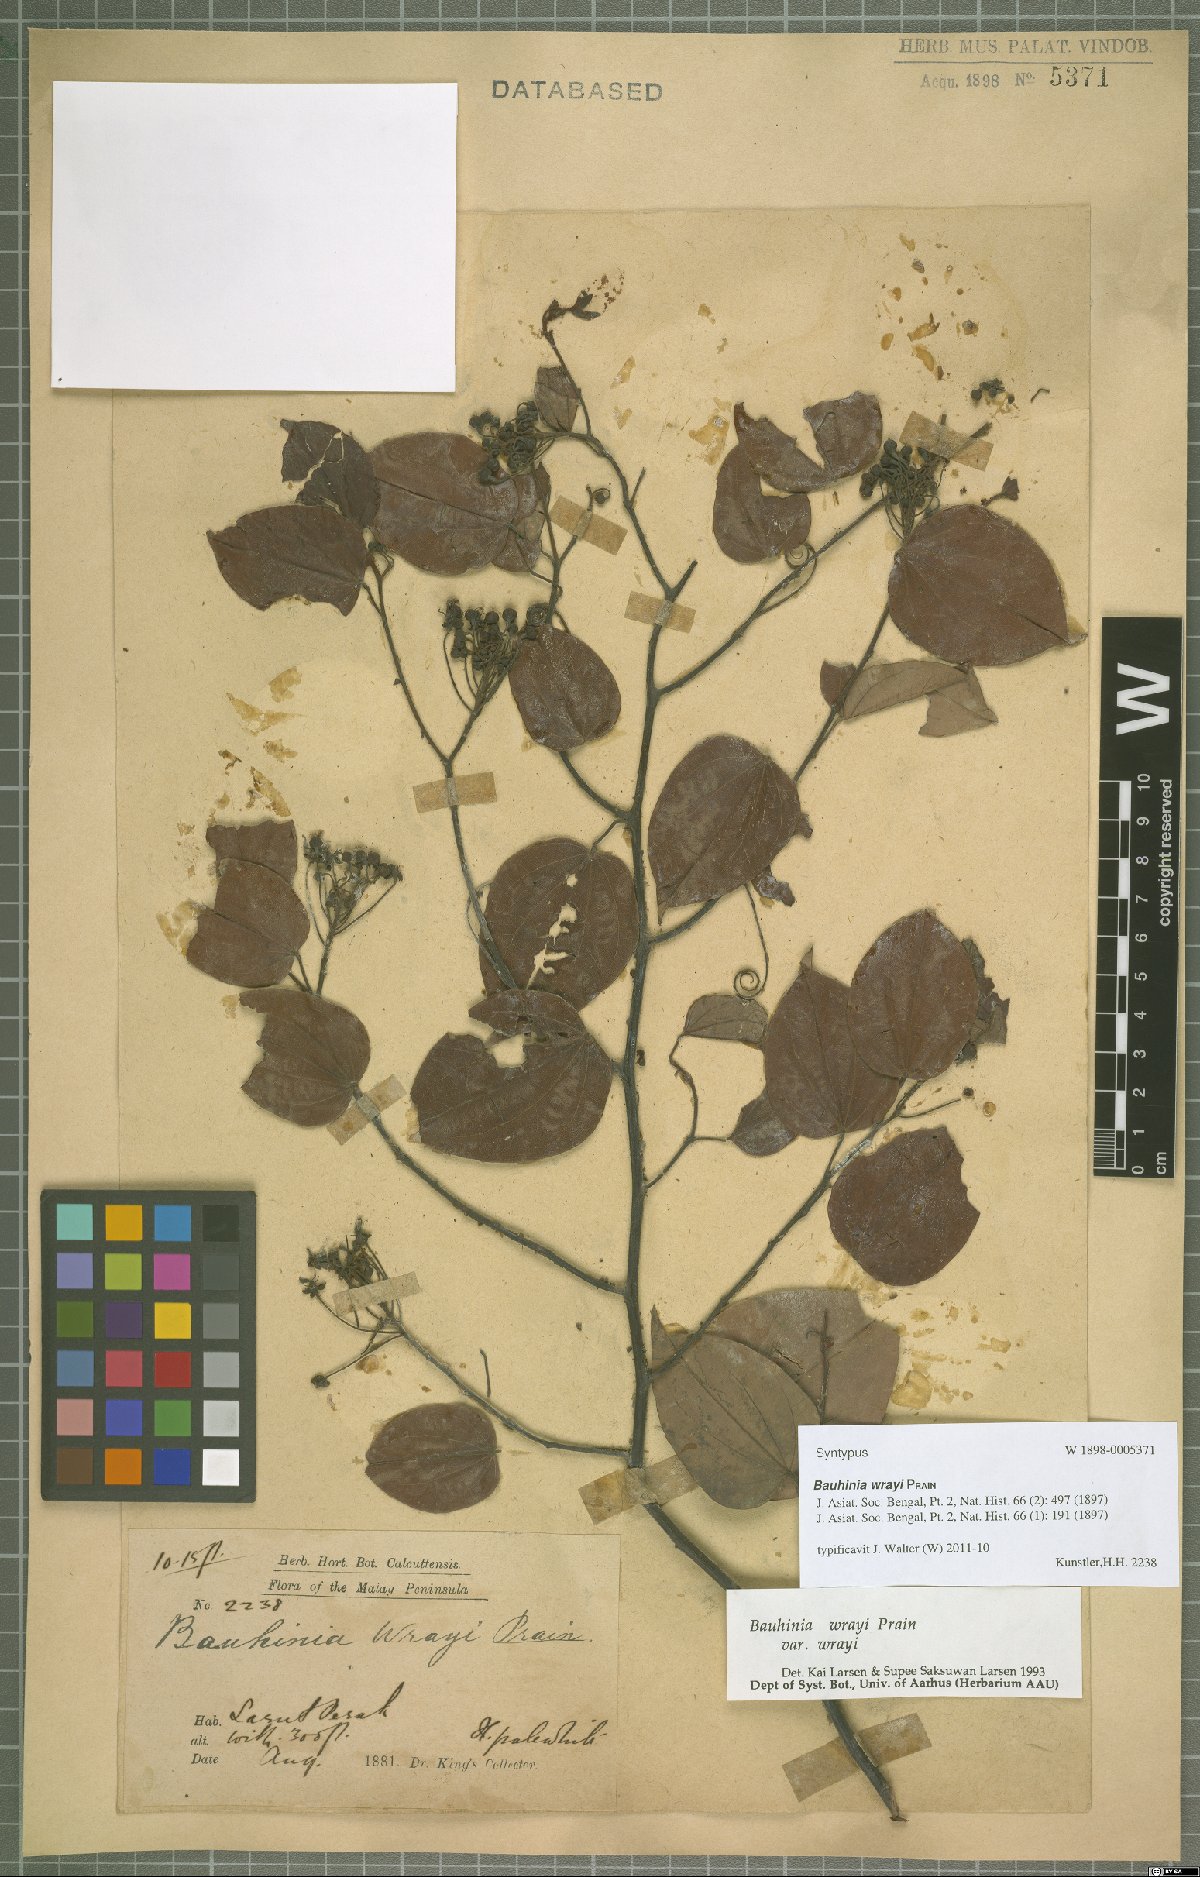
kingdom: Plantae
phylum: Tracheophyta
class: Magnoliopsida
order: Fabales
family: Fabaceae
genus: Phanera
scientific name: Phanera wrayi
